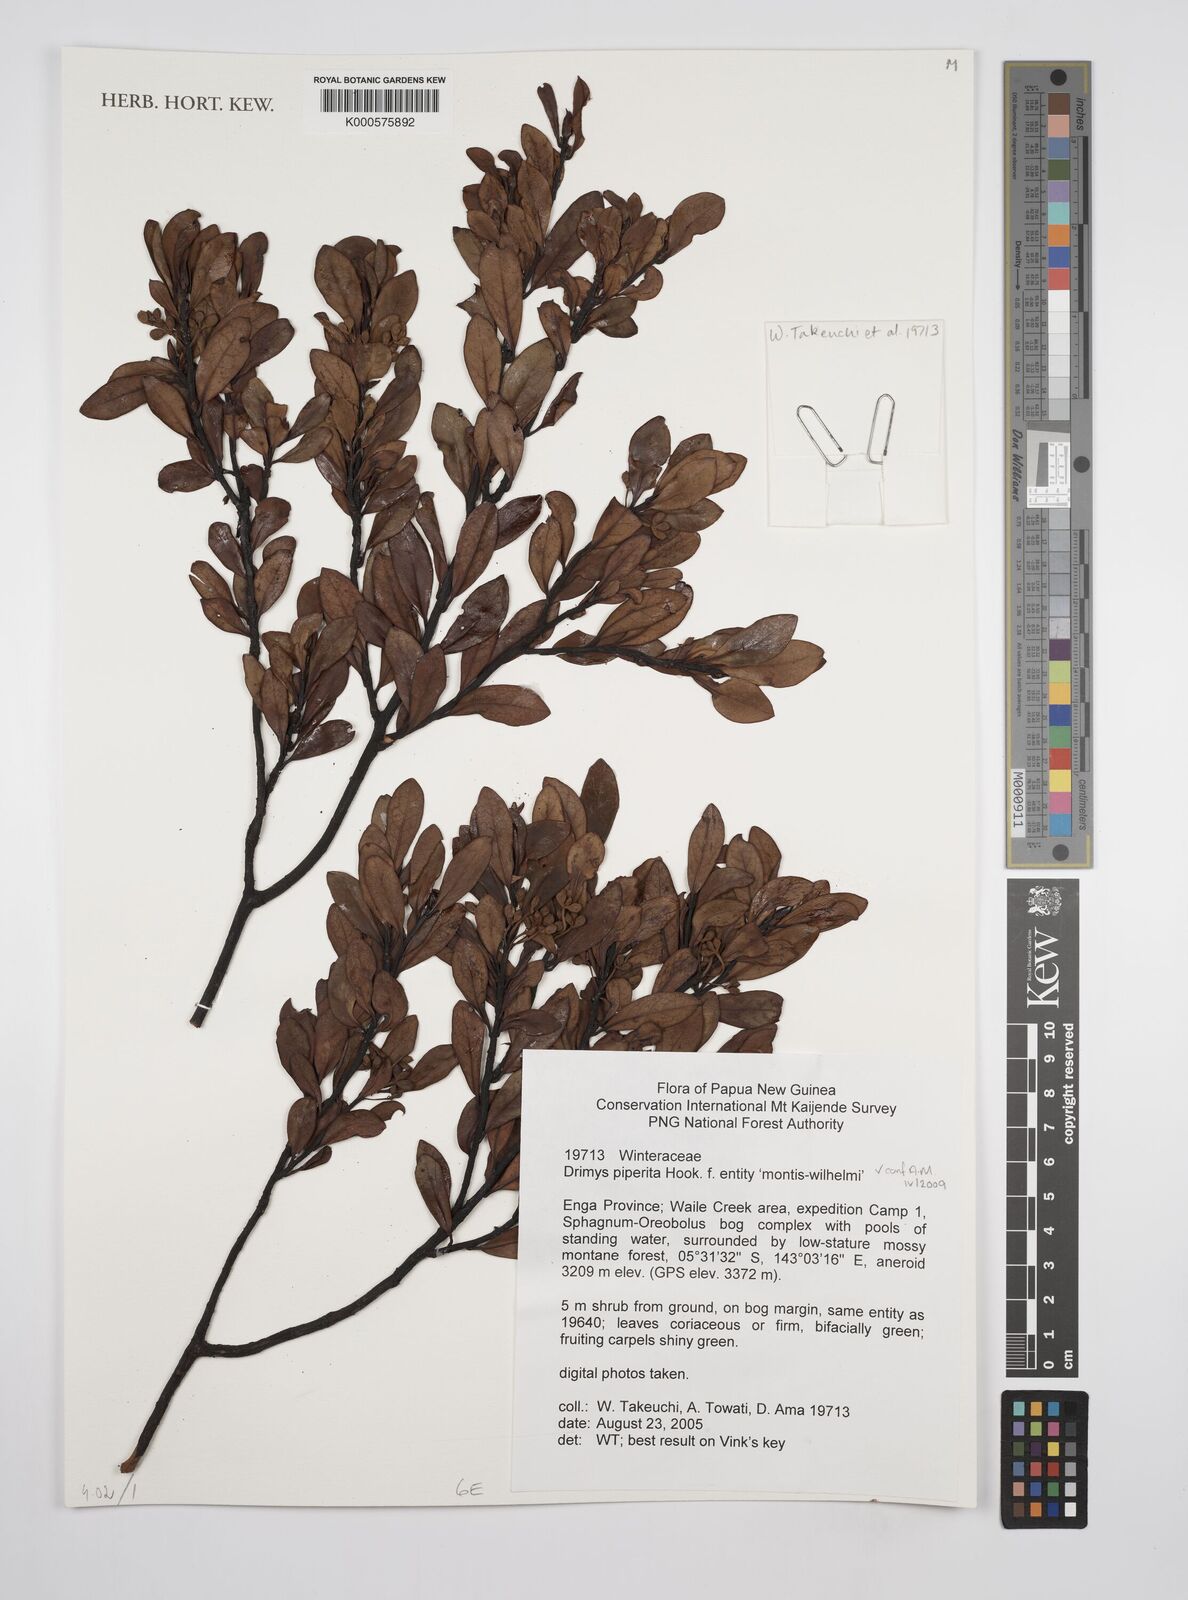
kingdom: Plantae
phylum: Tracheophyta
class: Magnoliopsida
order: Canellales
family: Winteraceae
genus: Drimys
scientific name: Drimys piperita
